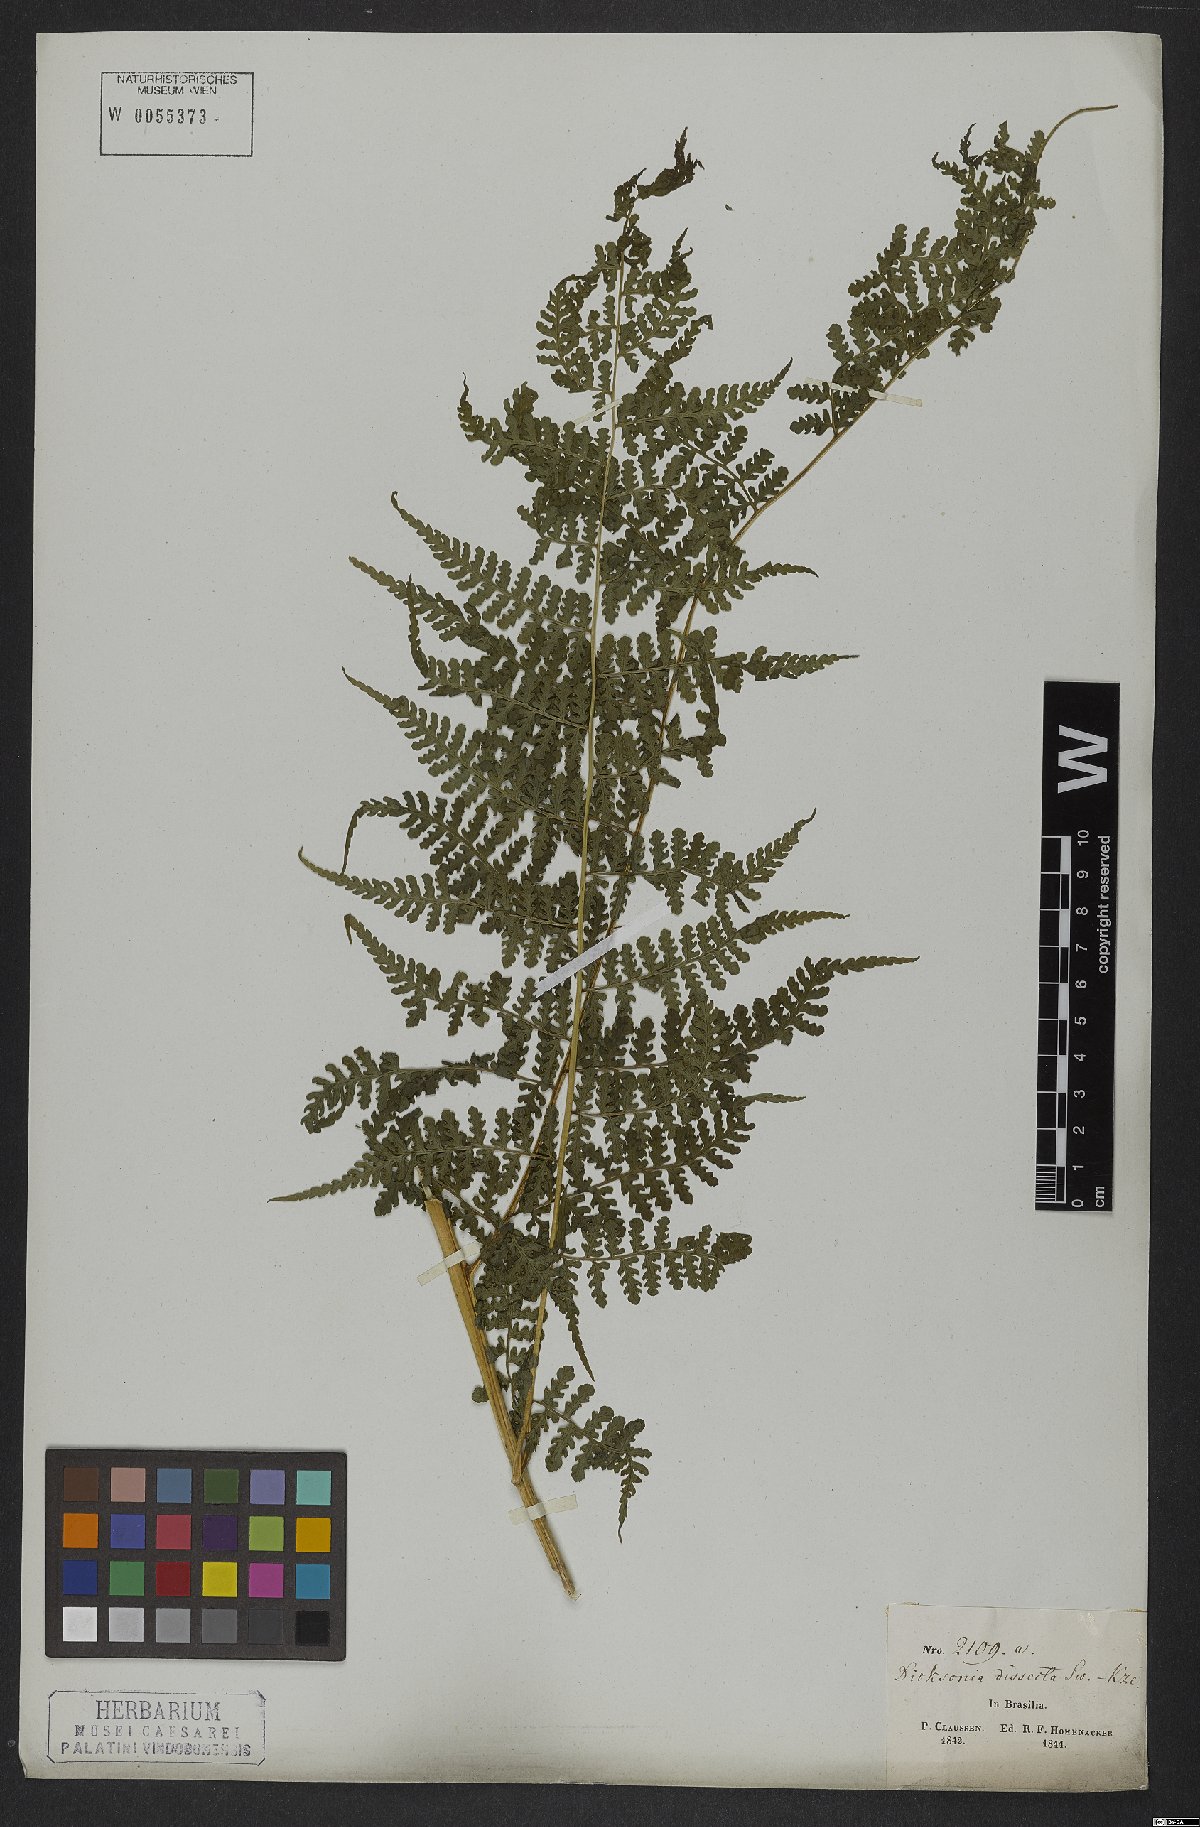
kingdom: Plantae
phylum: Tracheophyta
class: Polypodiopsida
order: Polypodiales
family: Dennstaedtiaceae
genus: Dennstaedtia
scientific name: Dennstaedtia dissecta
